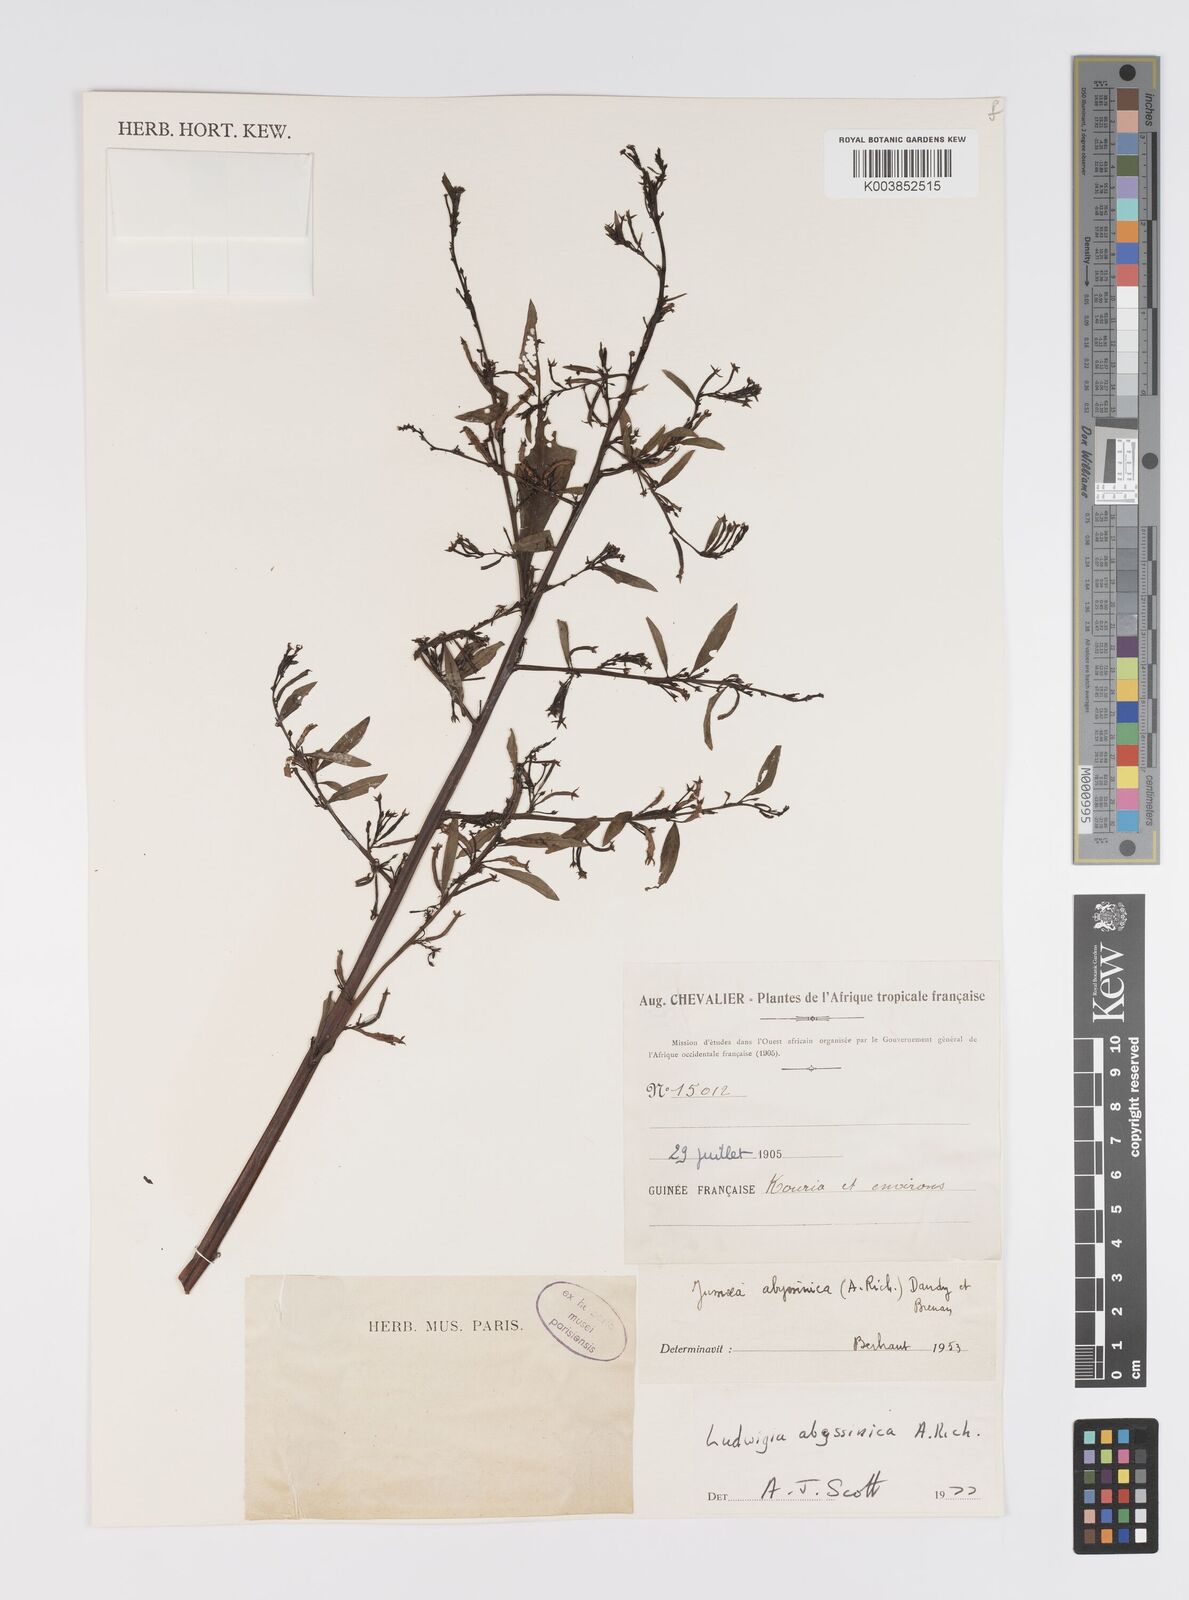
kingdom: Plantae
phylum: Tracheophyta
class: Magnoliopsida
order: Myrtales
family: Onagraceae
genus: Ludwigia
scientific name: Ludwigia abyssinica
